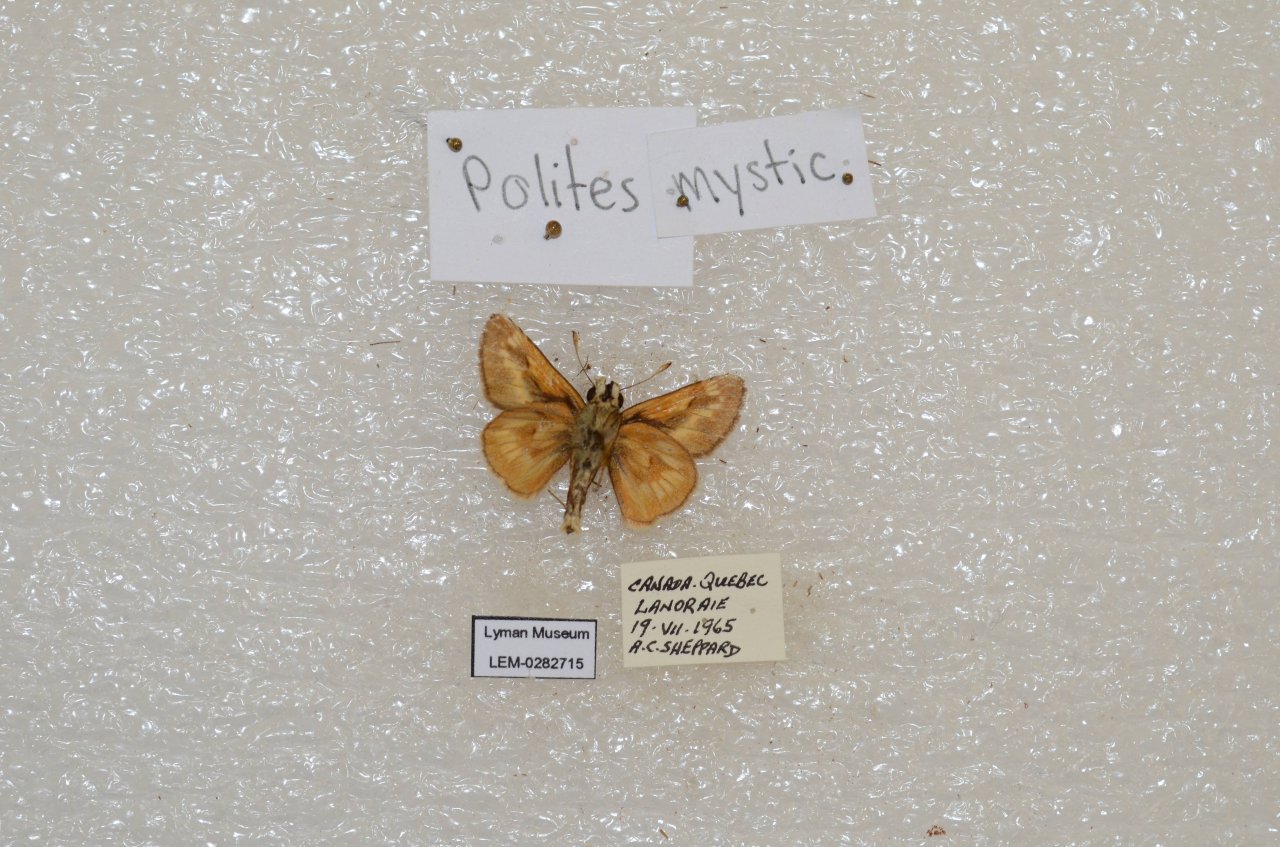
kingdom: Animalia
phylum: Arthropoda
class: Insecta
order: Lepidoptera
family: Hesperiidae
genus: Polites
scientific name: Polites
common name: Long Dash Skipper
